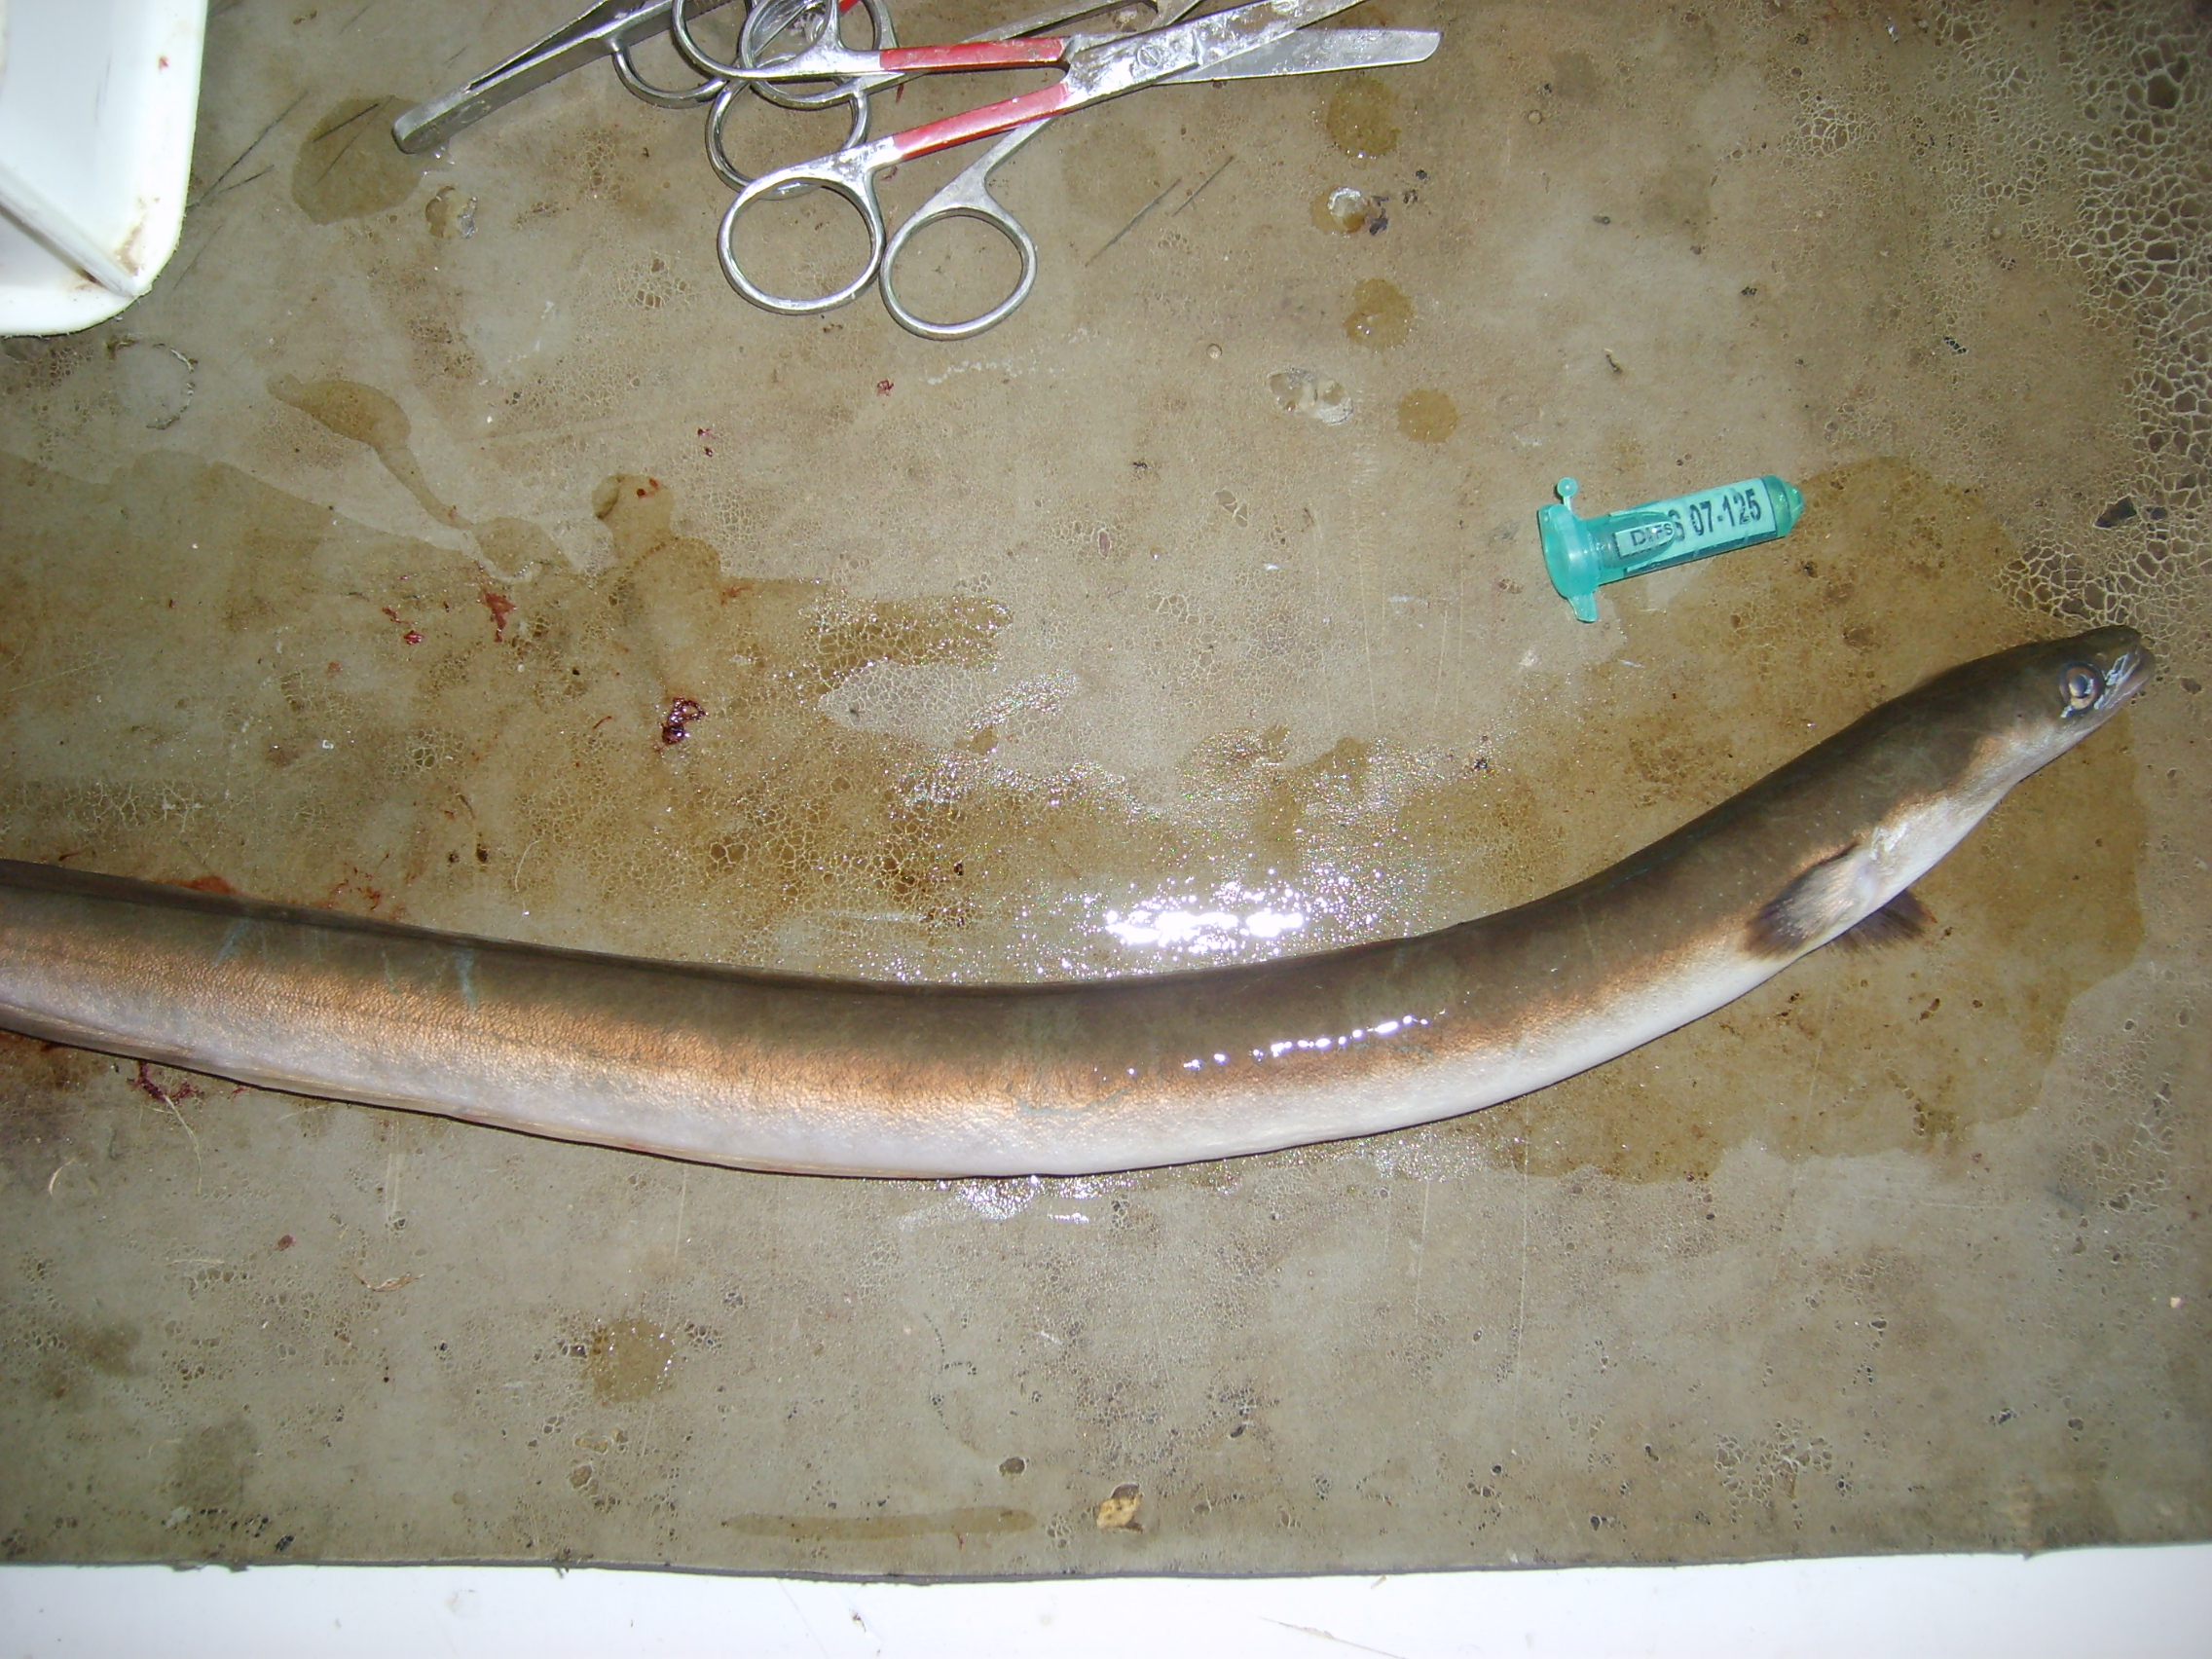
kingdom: Animalia
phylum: Chordata
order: Anguilliformes
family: Anguillidae
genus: Anguilla
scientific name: Anguilla mossambica
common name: African longfin eel
